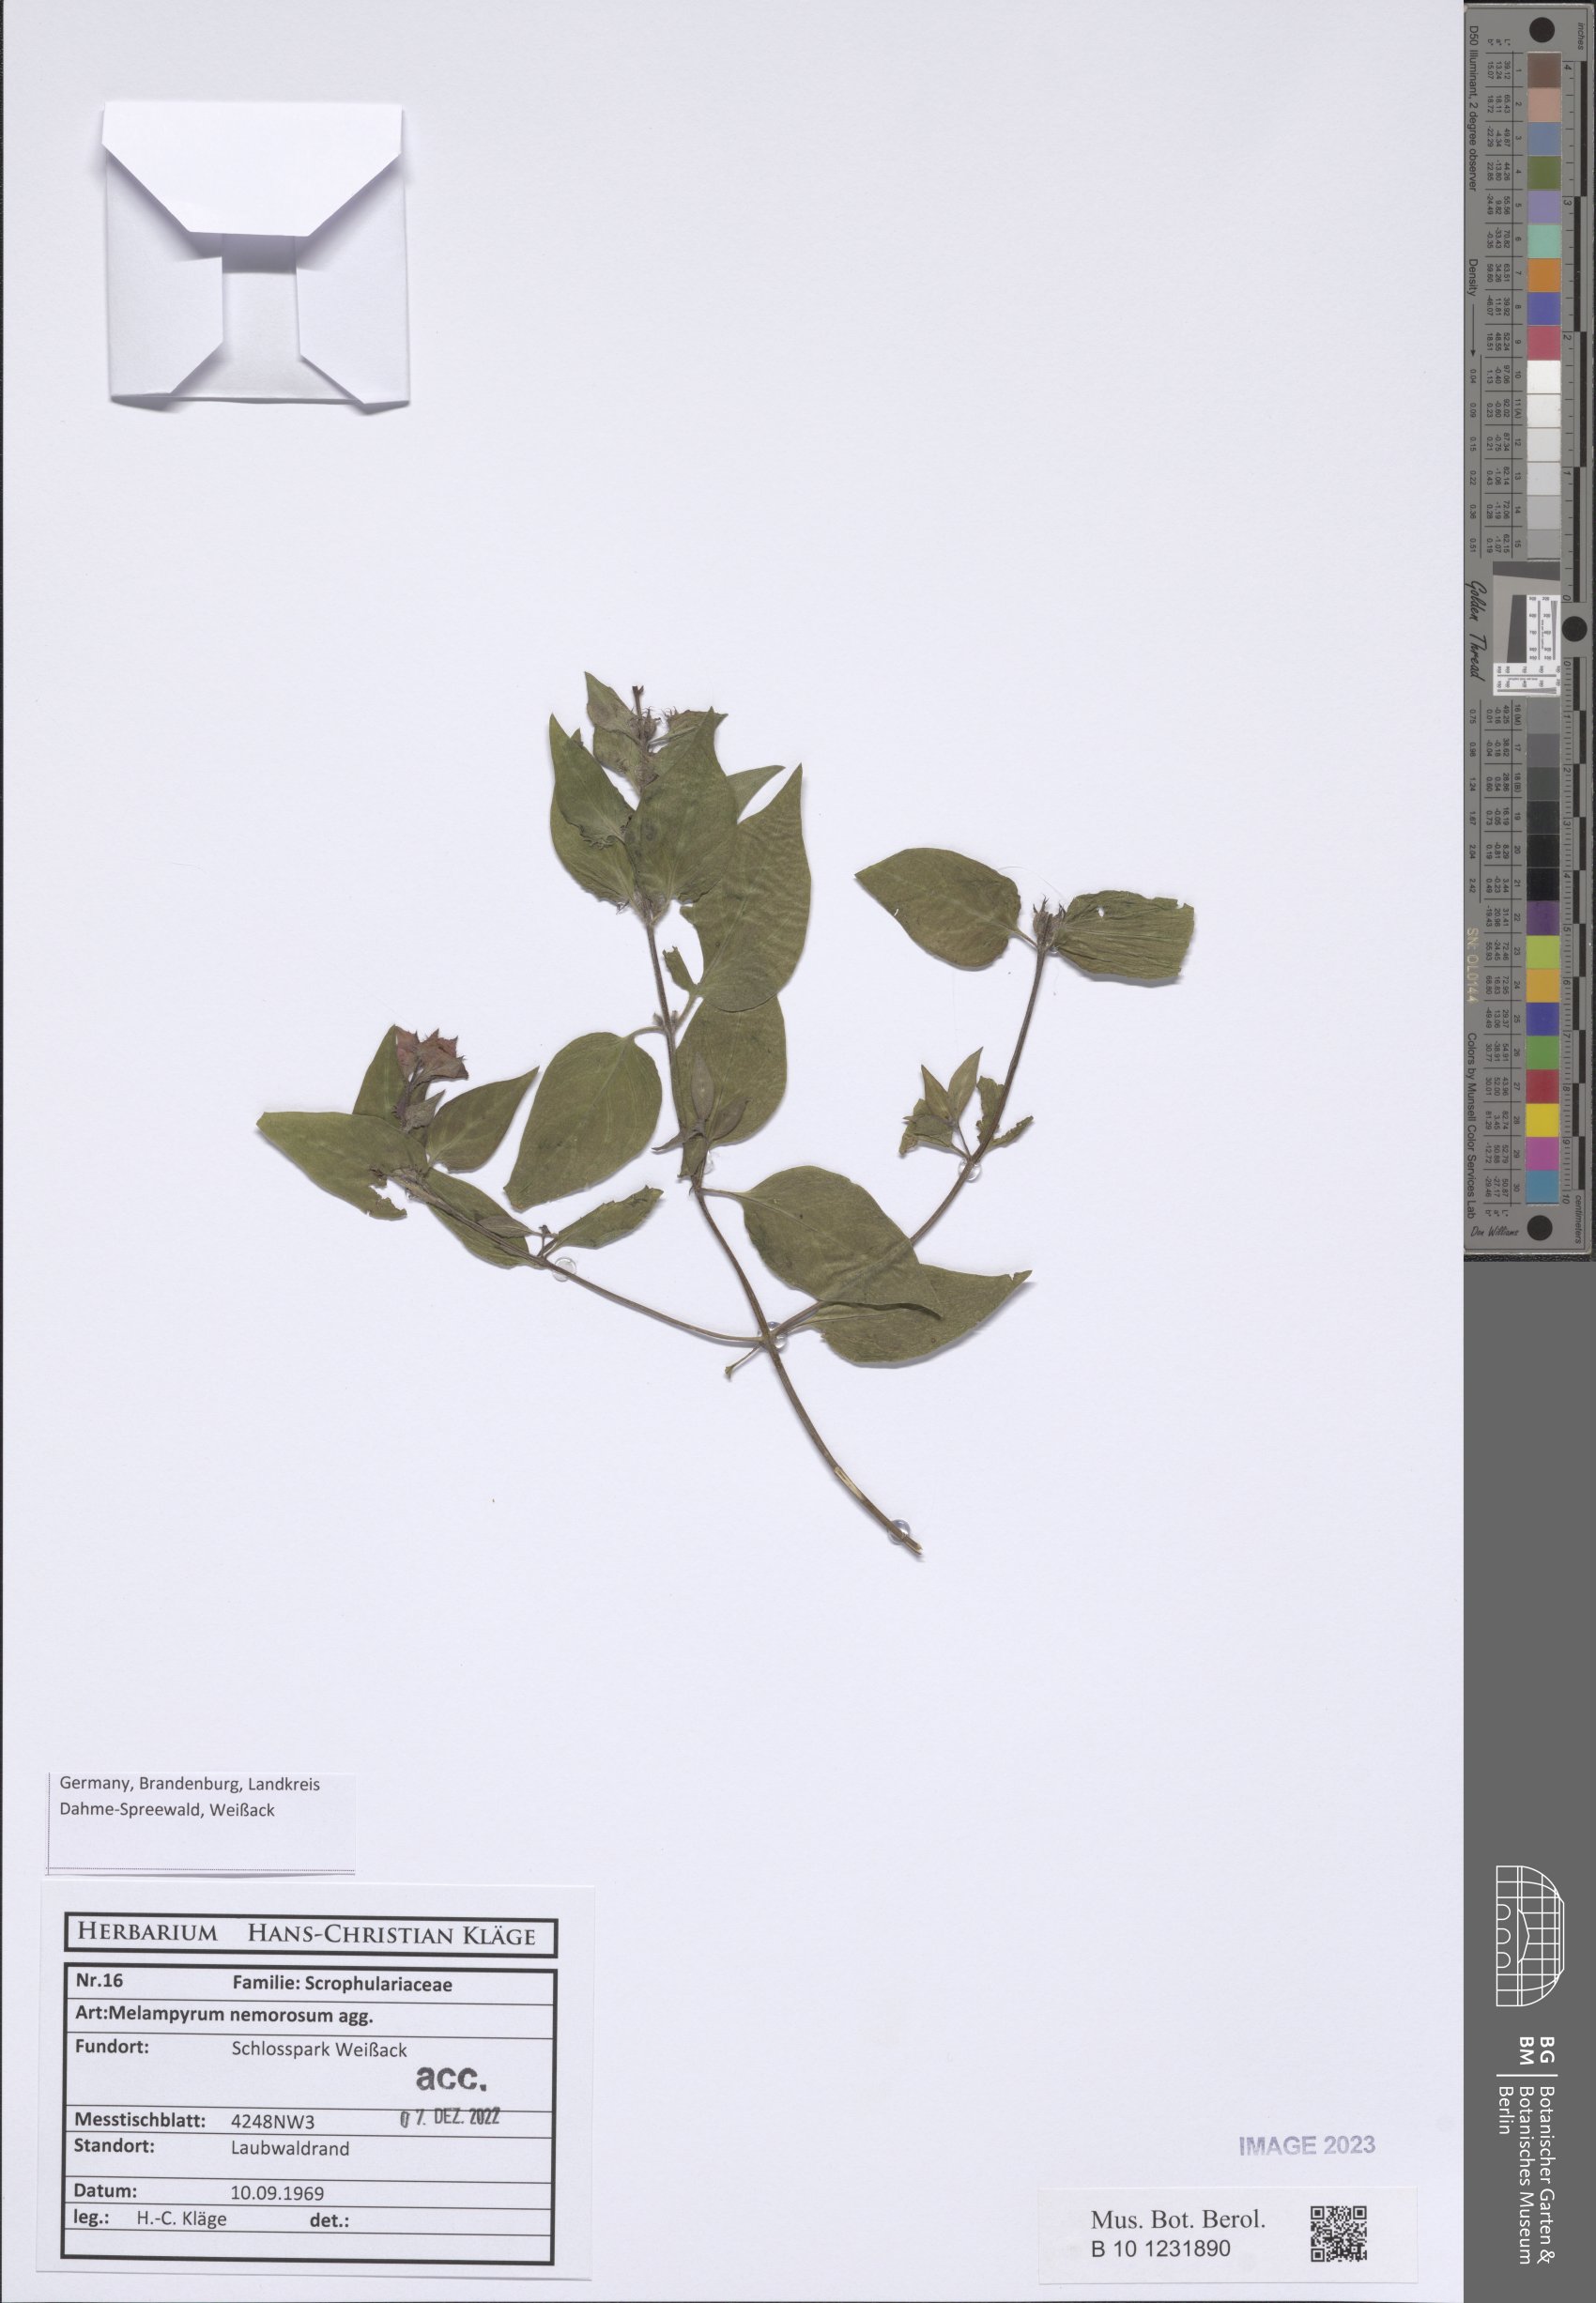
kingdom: Plantae
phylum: Tracheophyta
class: Magnoliopsida
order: Lamiales
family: Orobanchaceae
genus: Melampyrum
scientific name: Melampyrum nemorosum
